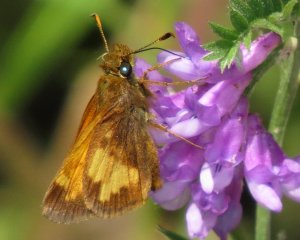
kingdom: Animalia
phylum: Arthropoda
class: Insecta
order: Lepidoptera
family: Hesperiidae
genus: Lon
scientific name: Lon hobomok
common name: Hobomok Skipper
